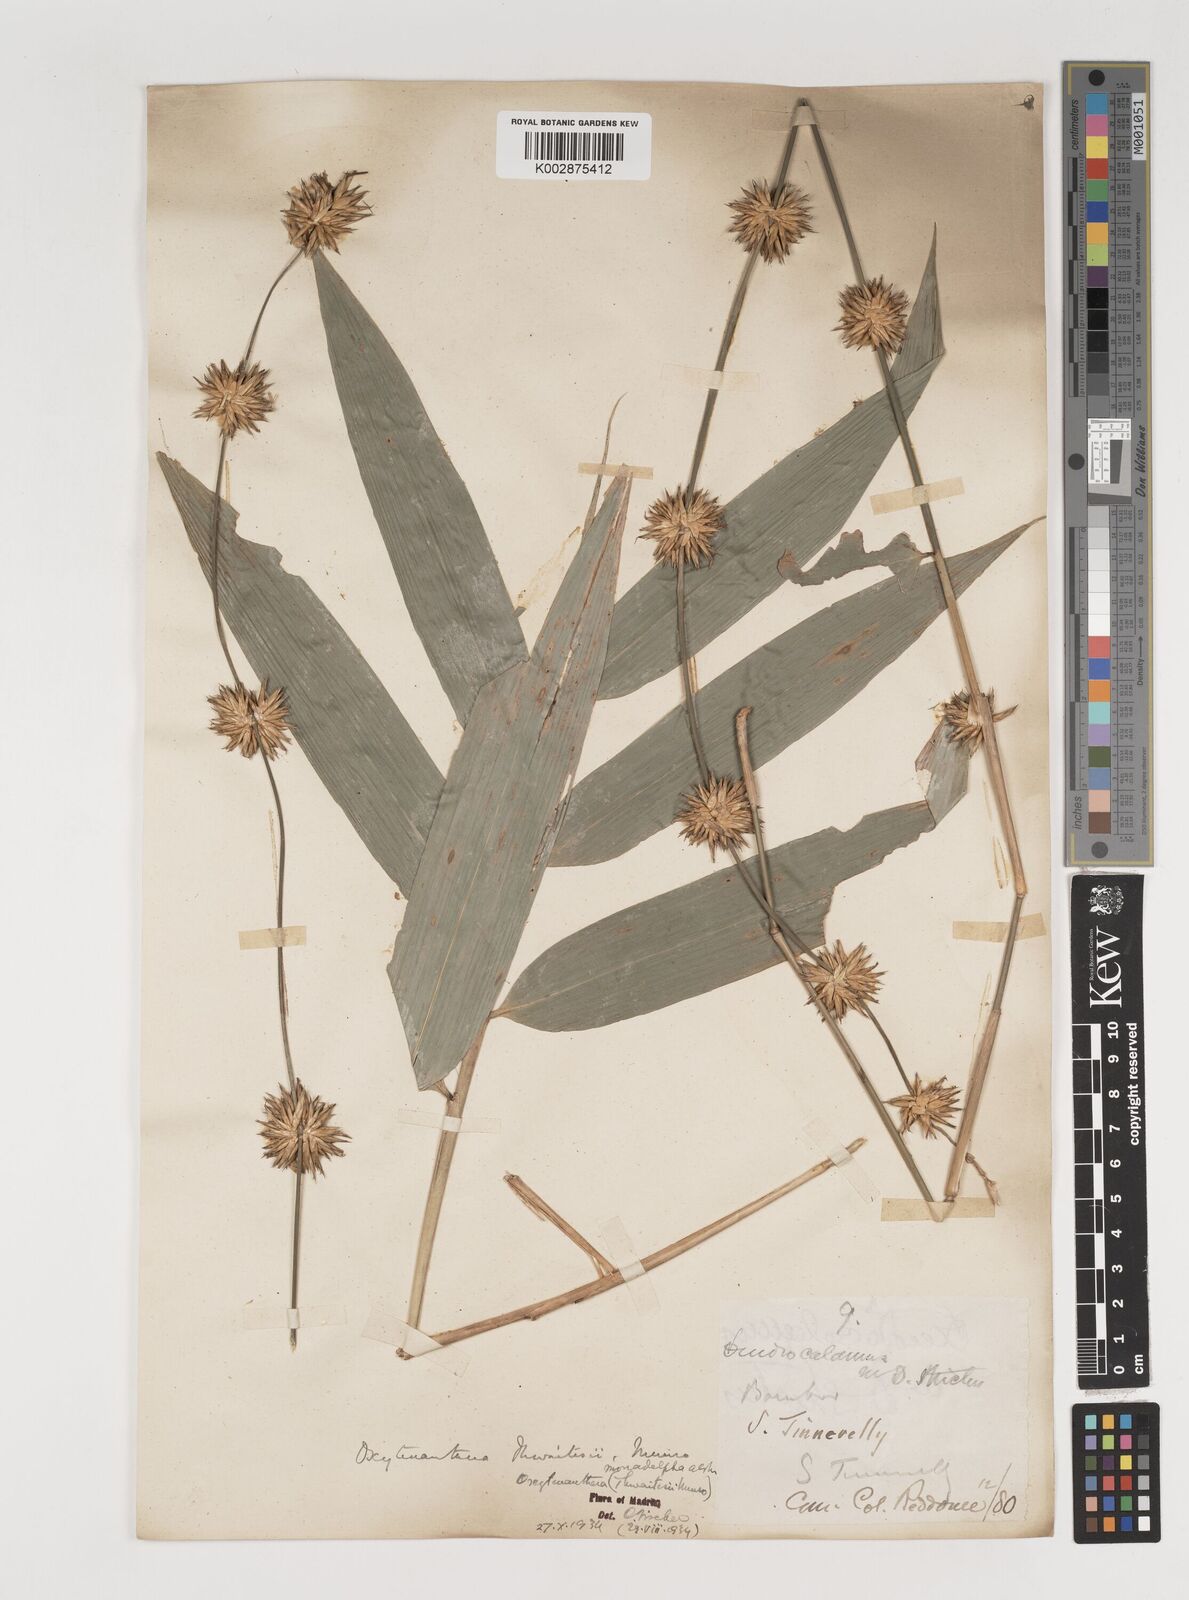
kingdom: Plantae
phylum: Tracheophyta
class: Liliopsida
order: Poales
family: Poaceae
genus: Pseudoxytenanthera
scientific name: Pseudoxytenanthera monadelpha
